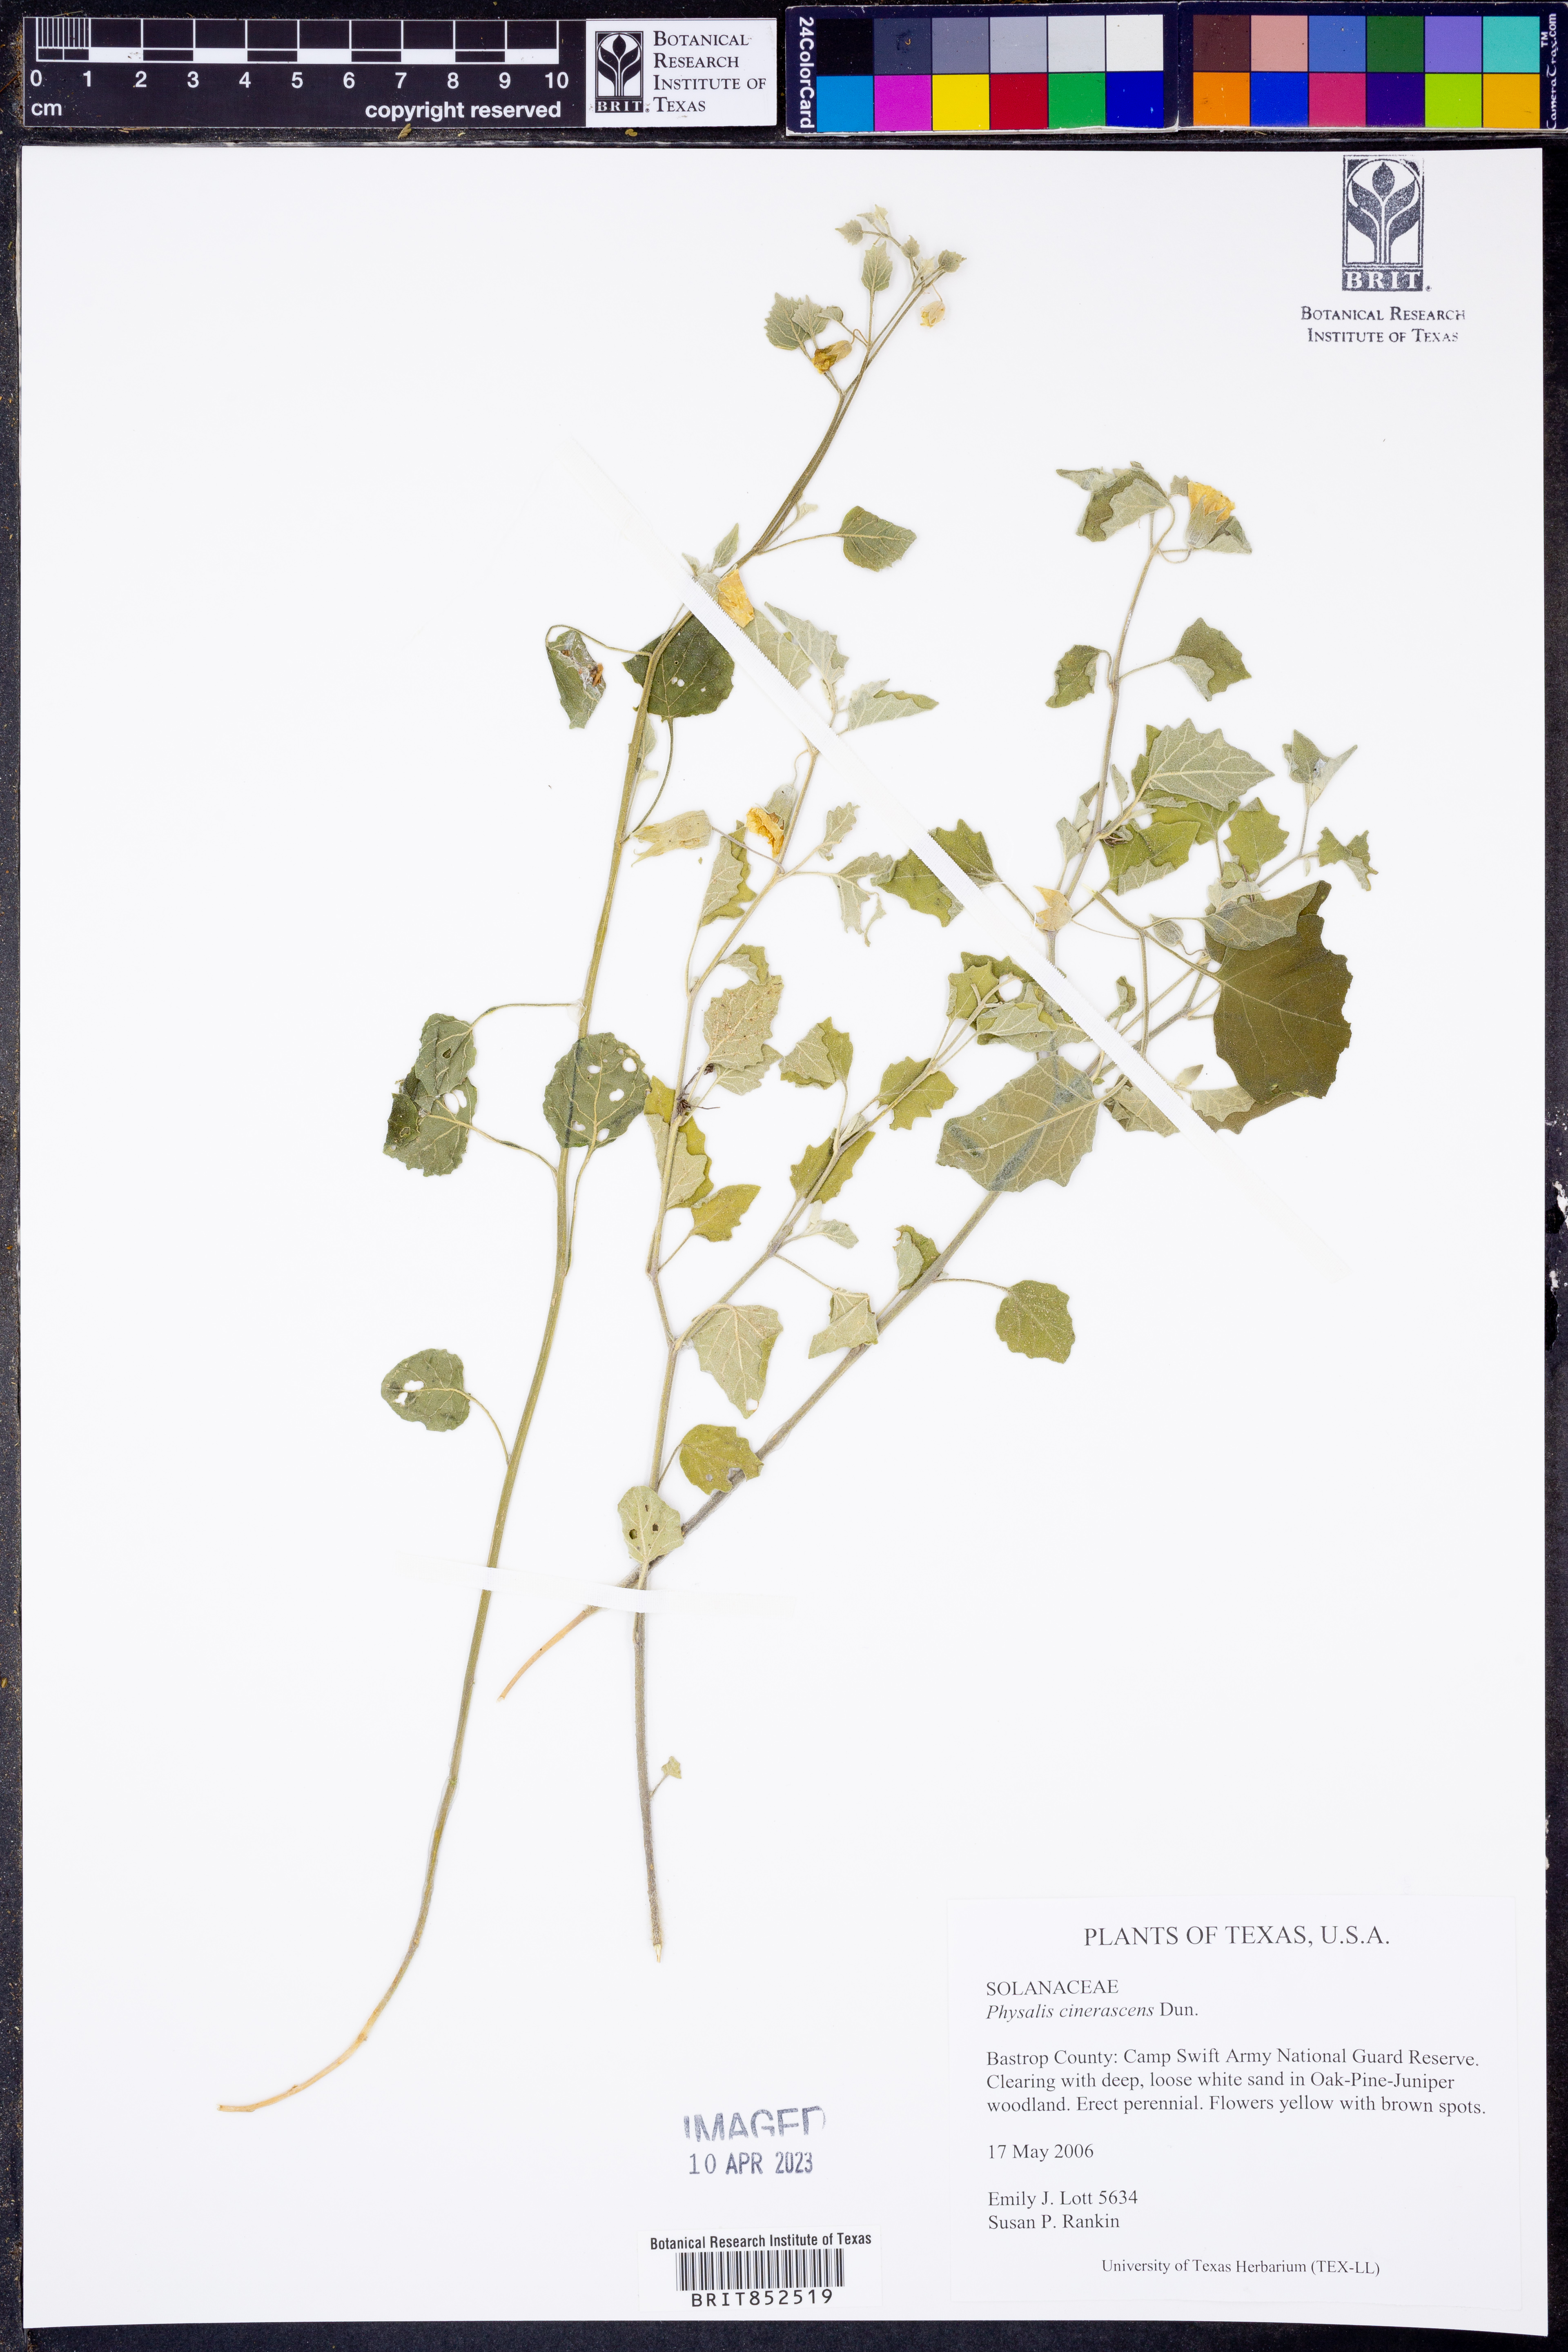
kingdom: Plantae
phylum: Tracheophyta
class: Magnoliopsida
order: Solanales
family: Solanaceae
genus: Physalis
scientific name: Physalis cinerascens
